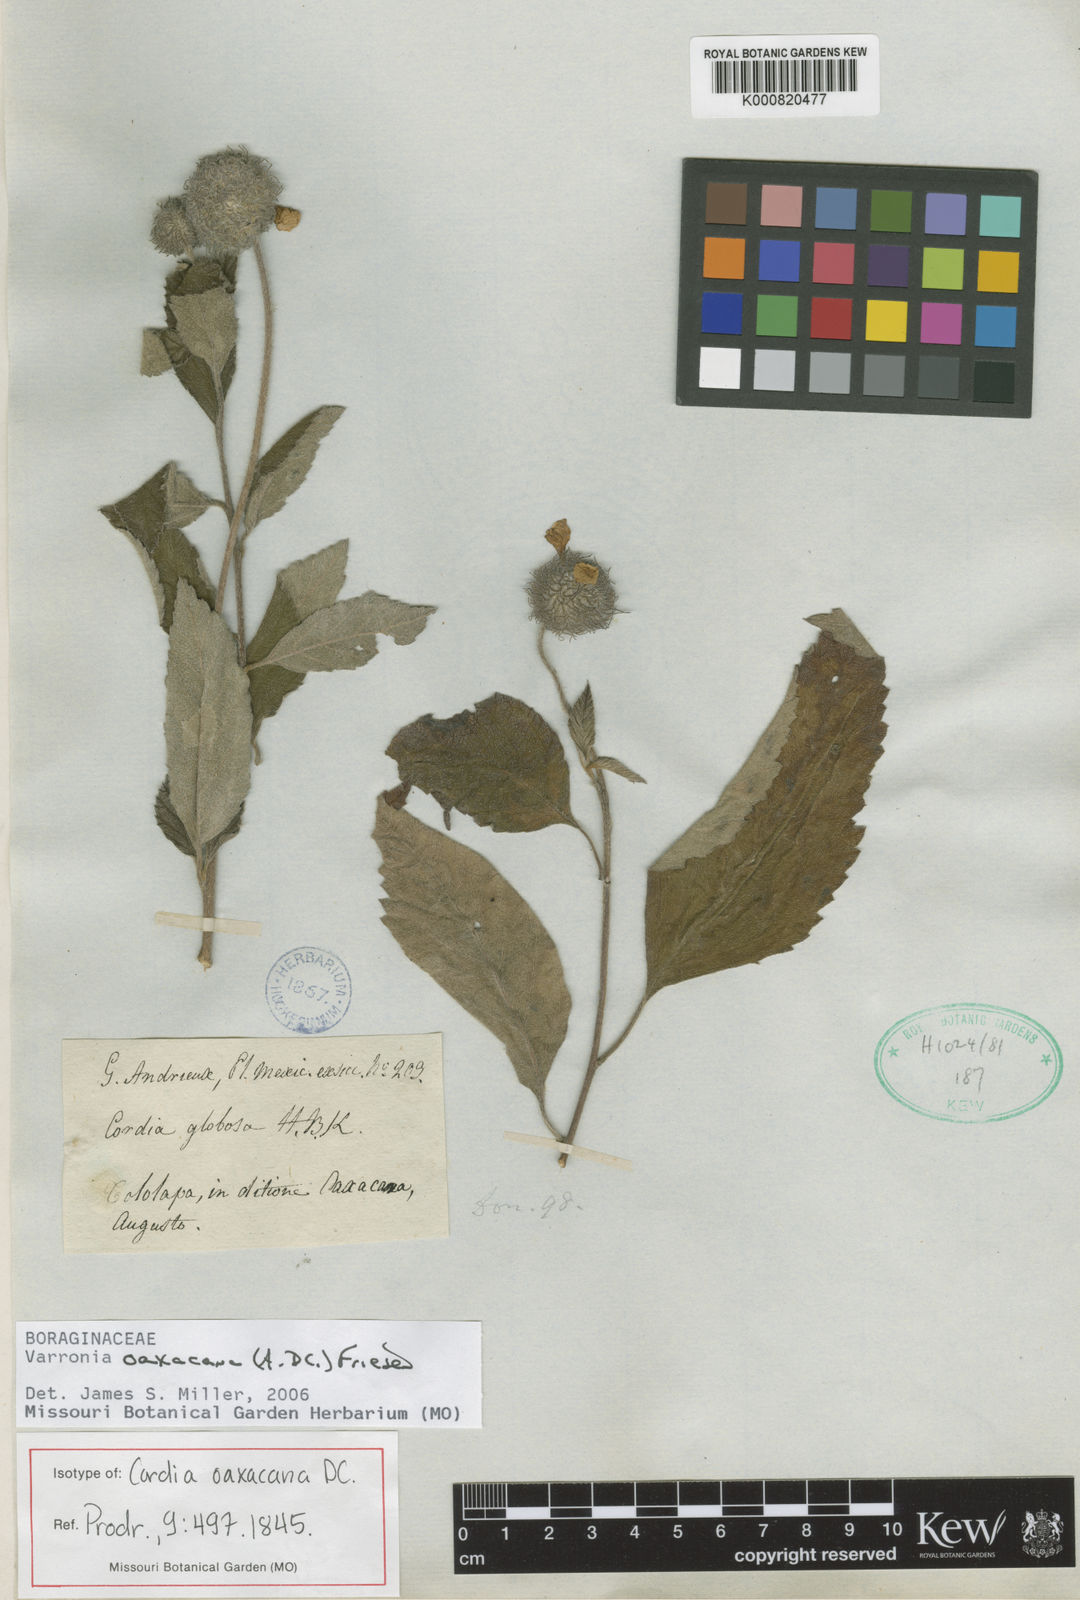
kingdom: Plantae
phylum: Tracheophyta
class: Magnoliopsida
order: Boraginales
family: Cordiaceae
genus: Varronia
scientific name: Varronia oaxacana
